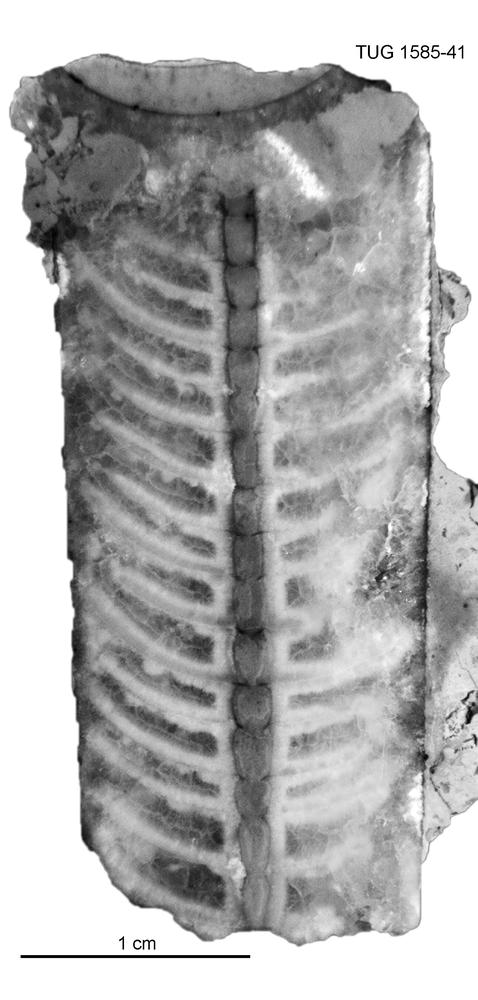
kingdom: Animalia
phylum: Mollusca
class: Cephalopoda
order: Orthocerida
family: Proteoceratidae
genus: Isorthoceras
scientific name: Isorthoceras cavi
